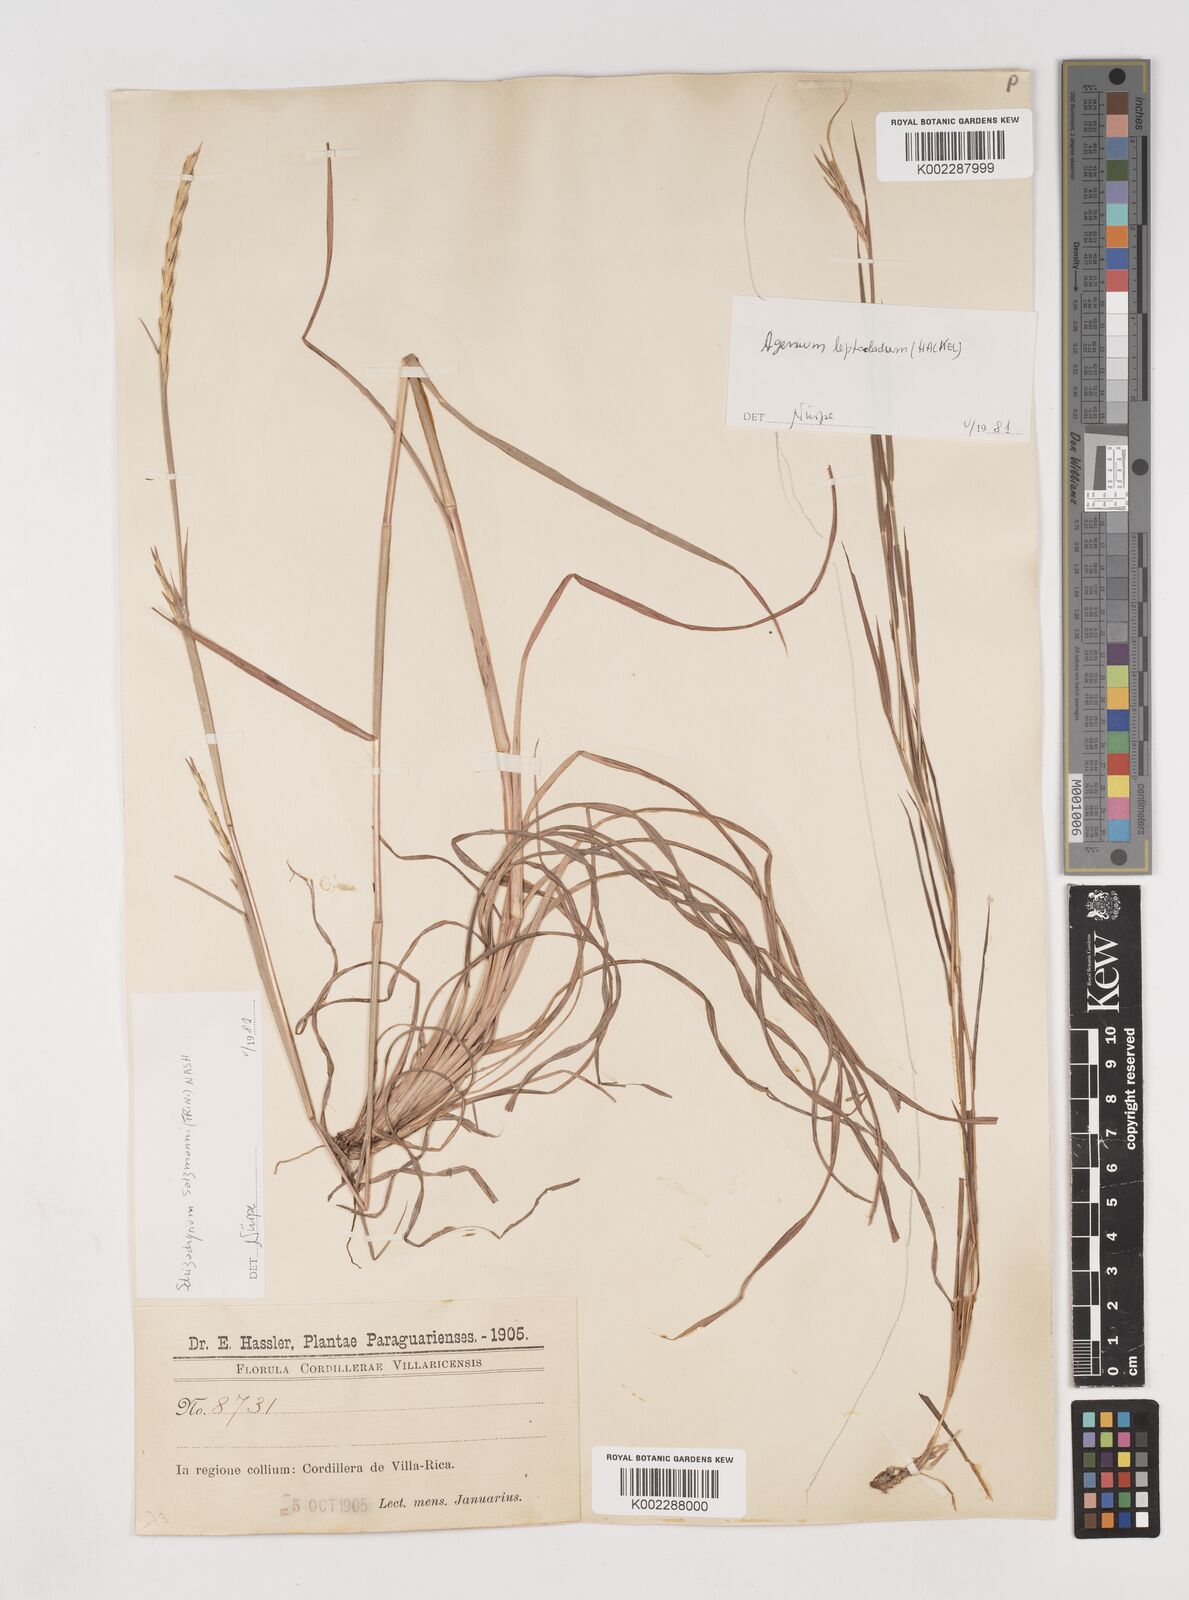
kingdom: Plantae
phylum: Tracheophyta
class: Liliopsida
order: Poales
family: Poaceae
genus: Andropogon
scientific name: Andropogon salzmannii
